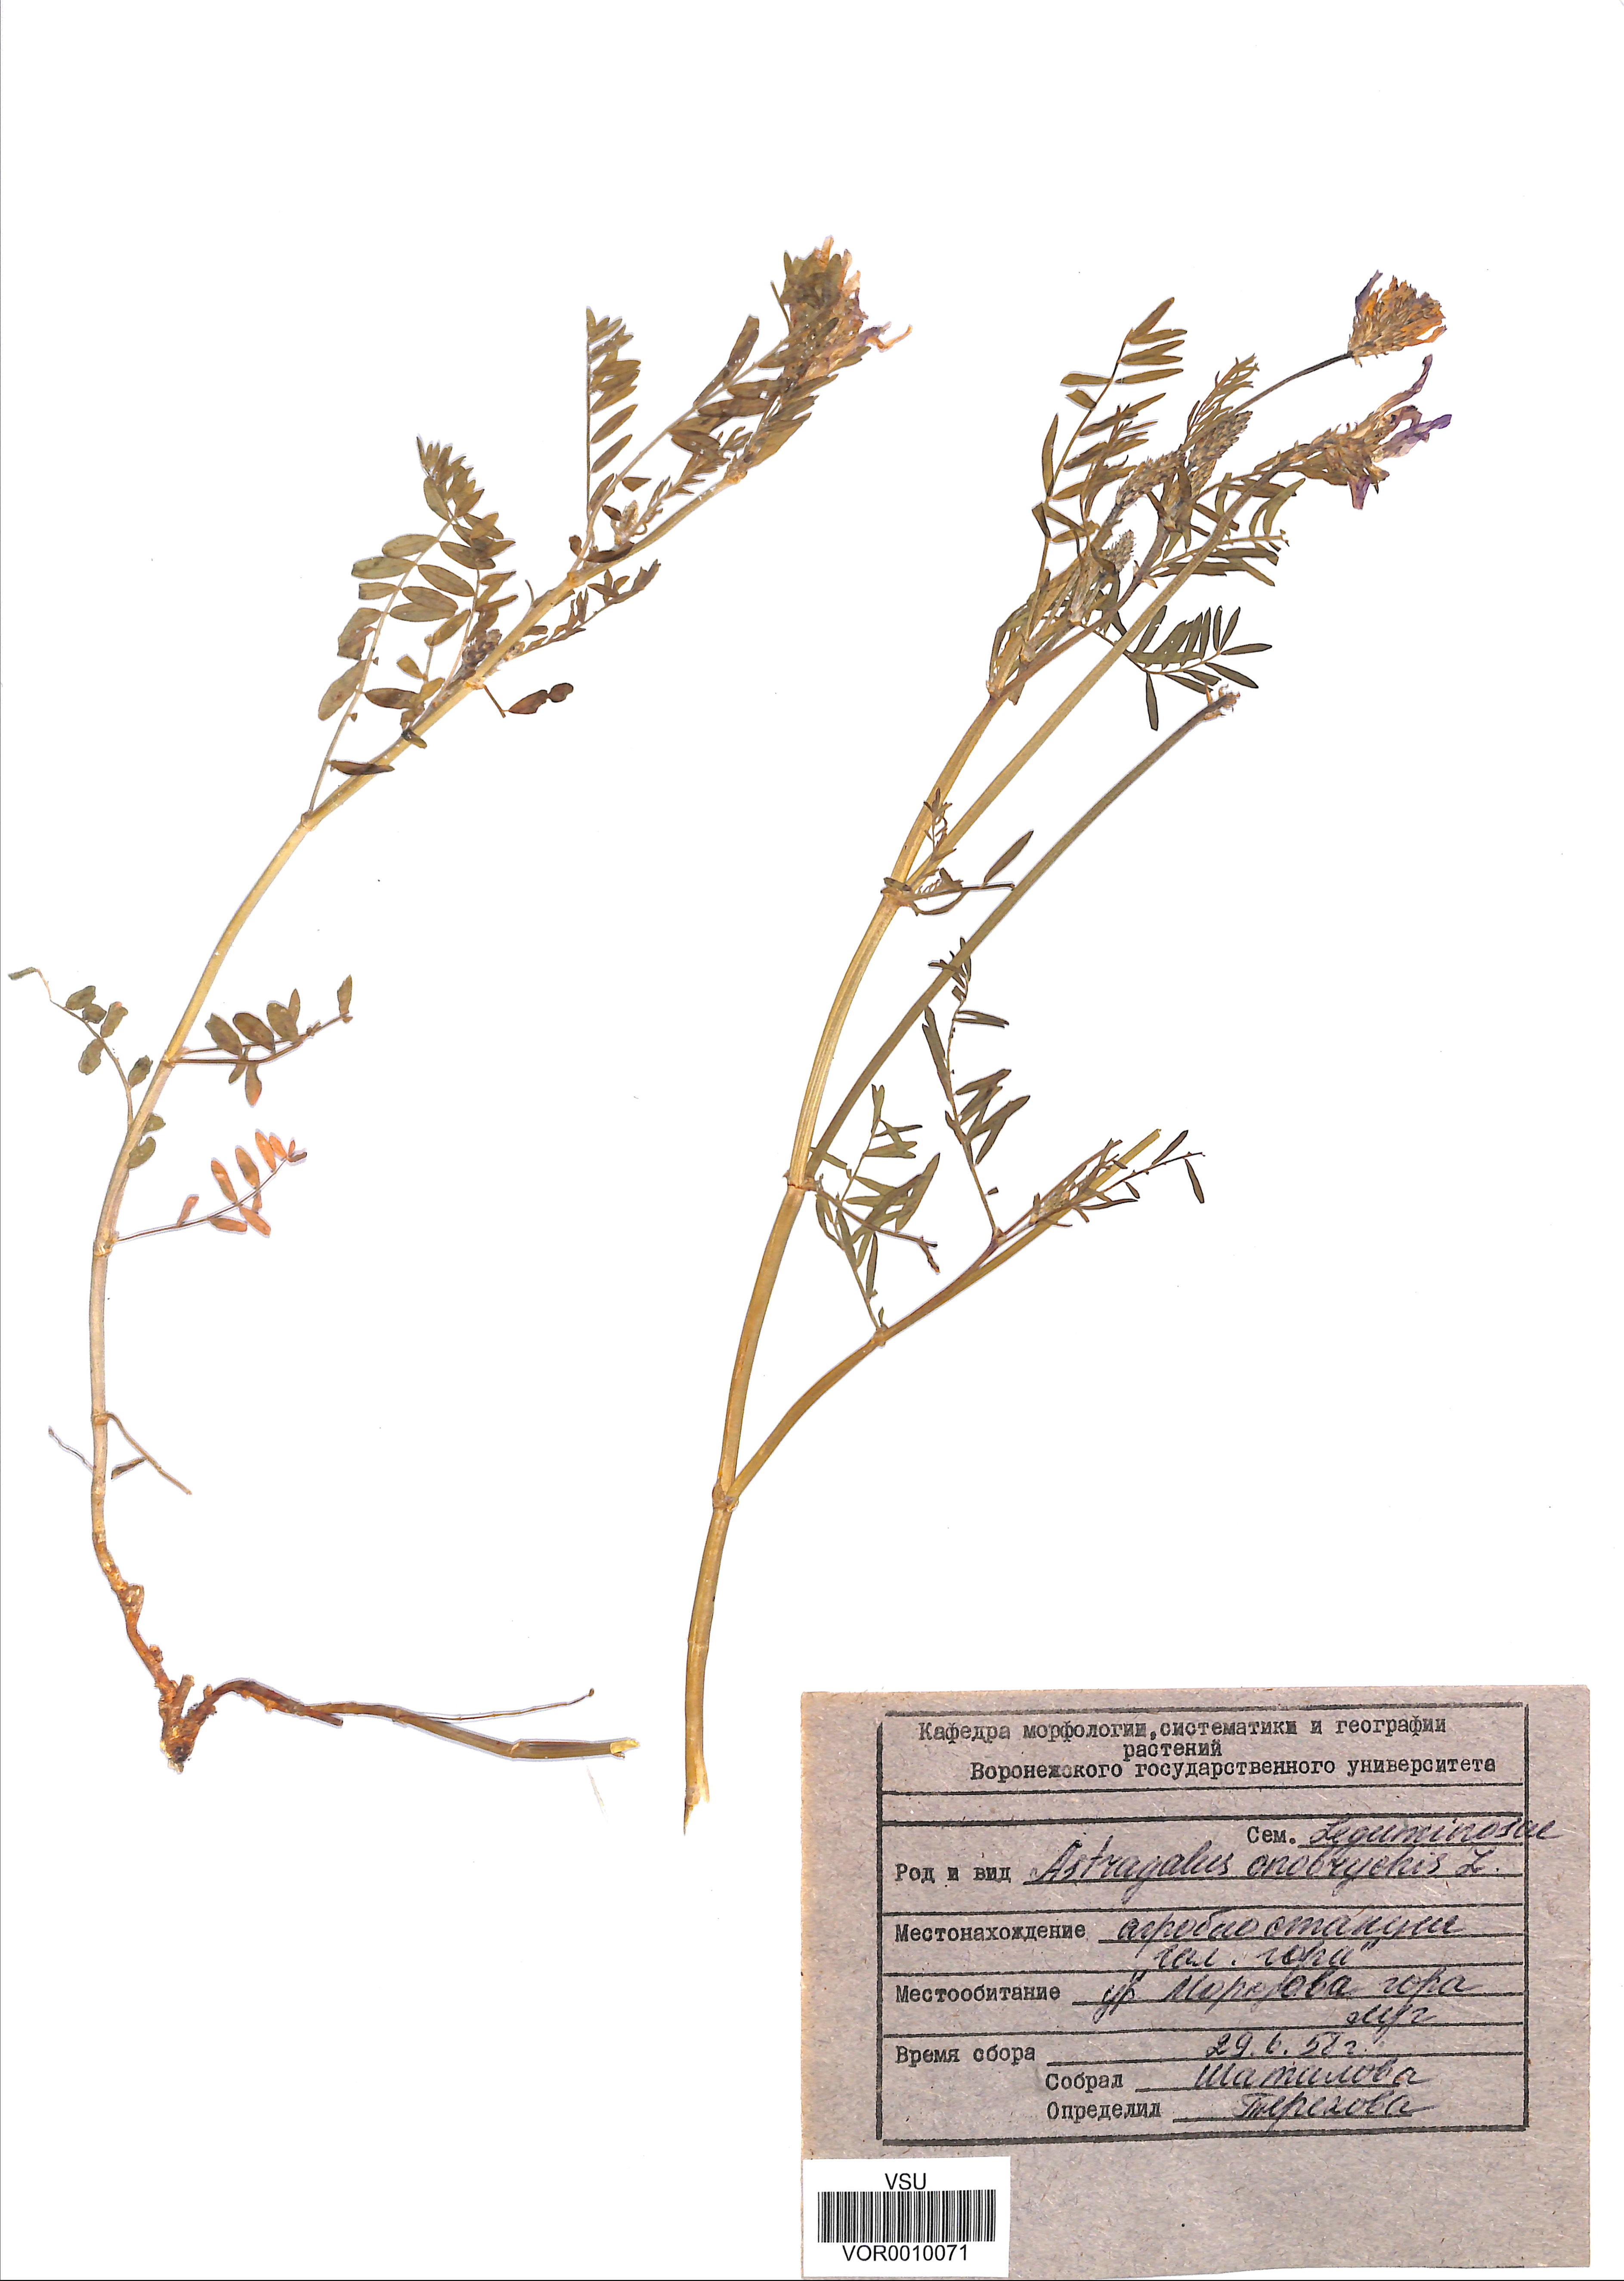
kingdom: Plantae
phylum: Tracheophyta
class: Magnoliopsida
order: Fabales
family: Fabaceae
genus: Astragalus
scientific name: Astragalus onobrychis
